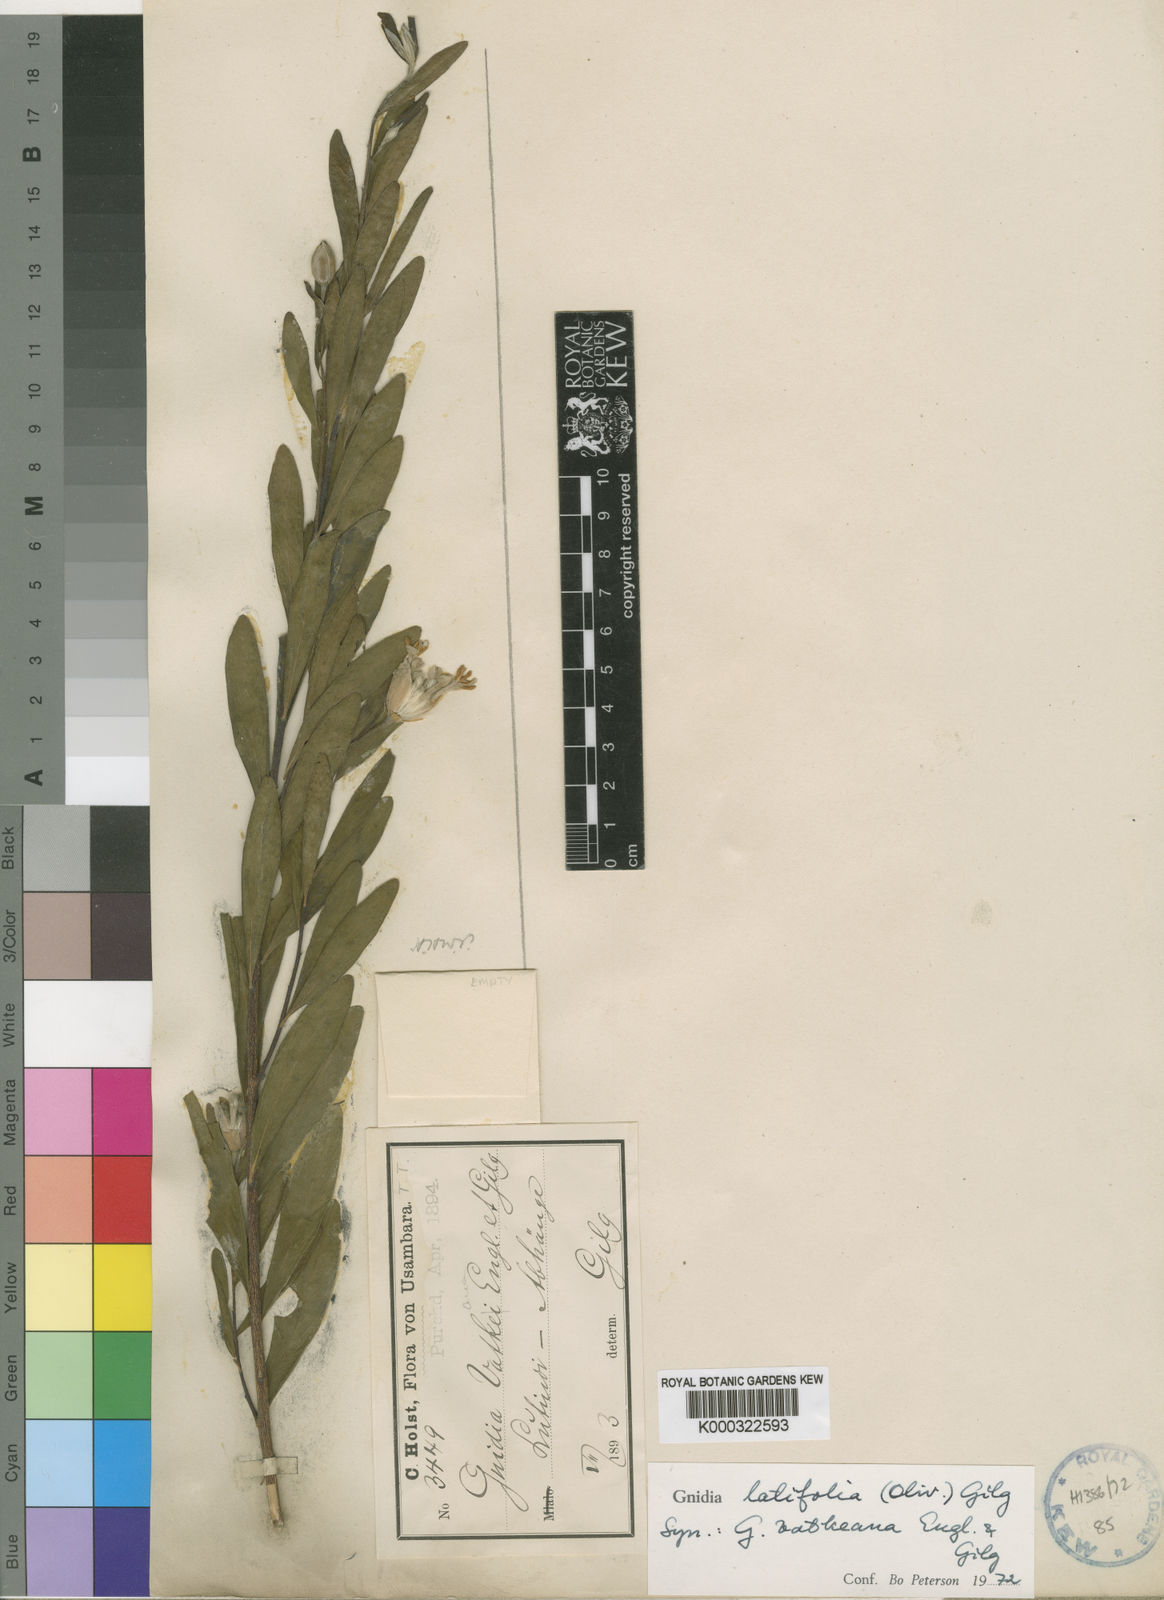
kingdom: Plantae
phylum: Tracheophyta
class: Magnoliopsida
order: Malvales
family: Thymelaeaceae
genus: Gnidia
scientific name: Gnidia latifolia
